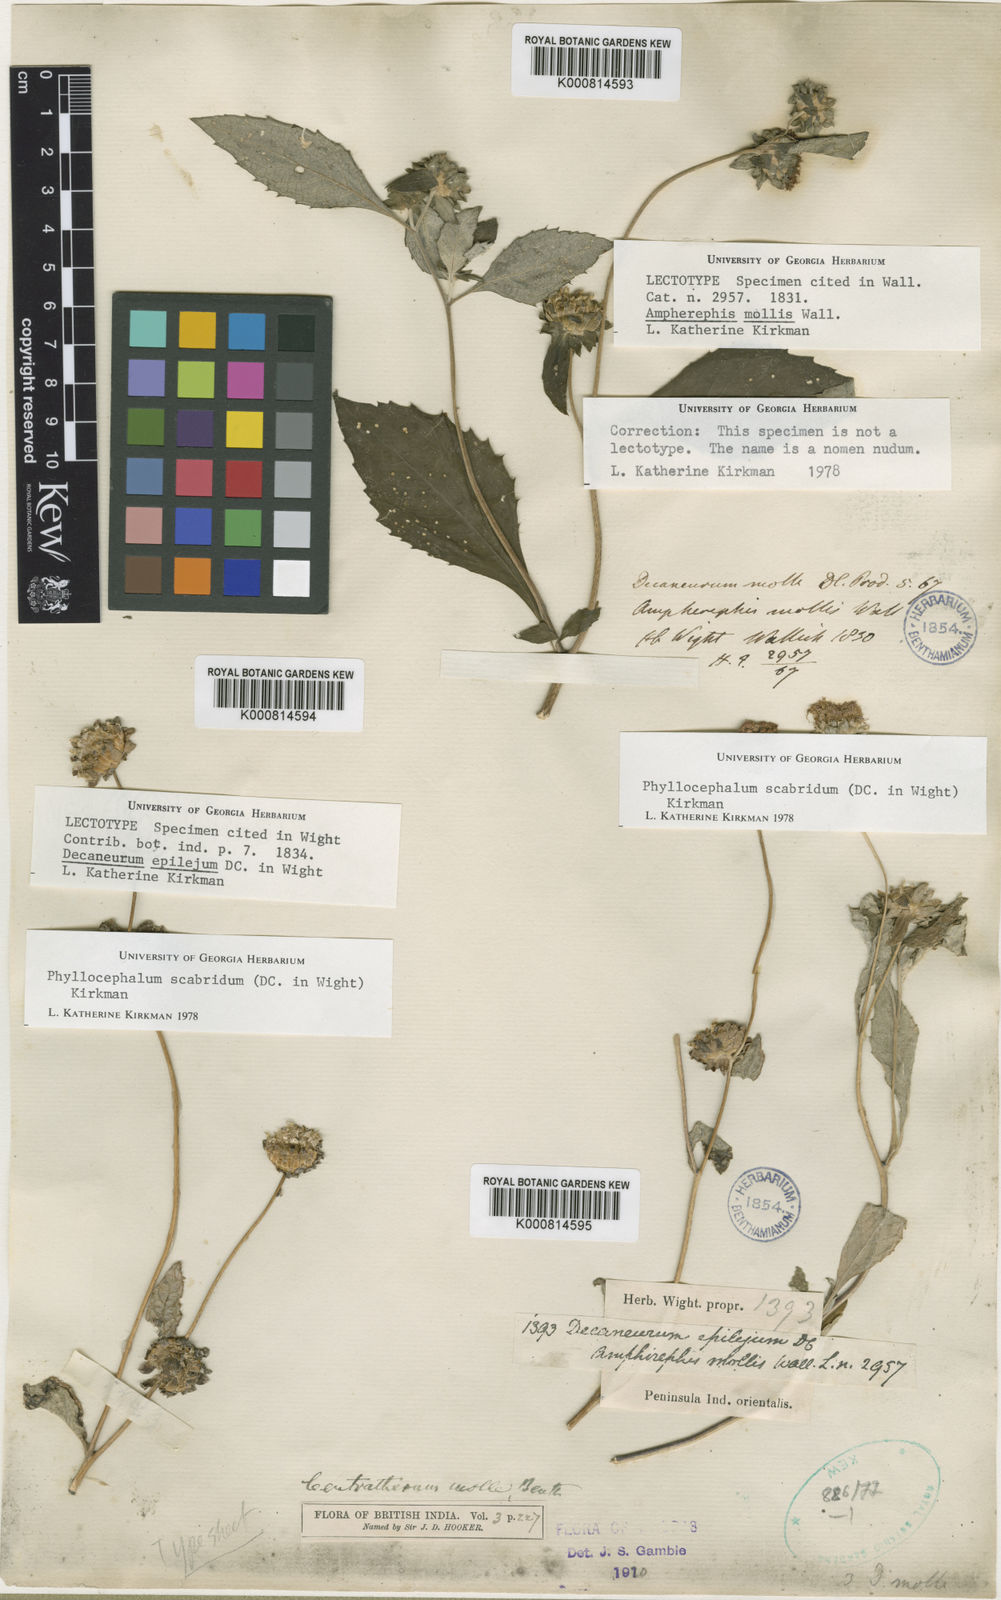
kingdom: Plantae
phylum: Tracheophyta
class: Magnoliopsida
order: Asterales
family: Asteraceae
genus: Phyllocephalum
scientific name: Phyllocephalum scabridum
